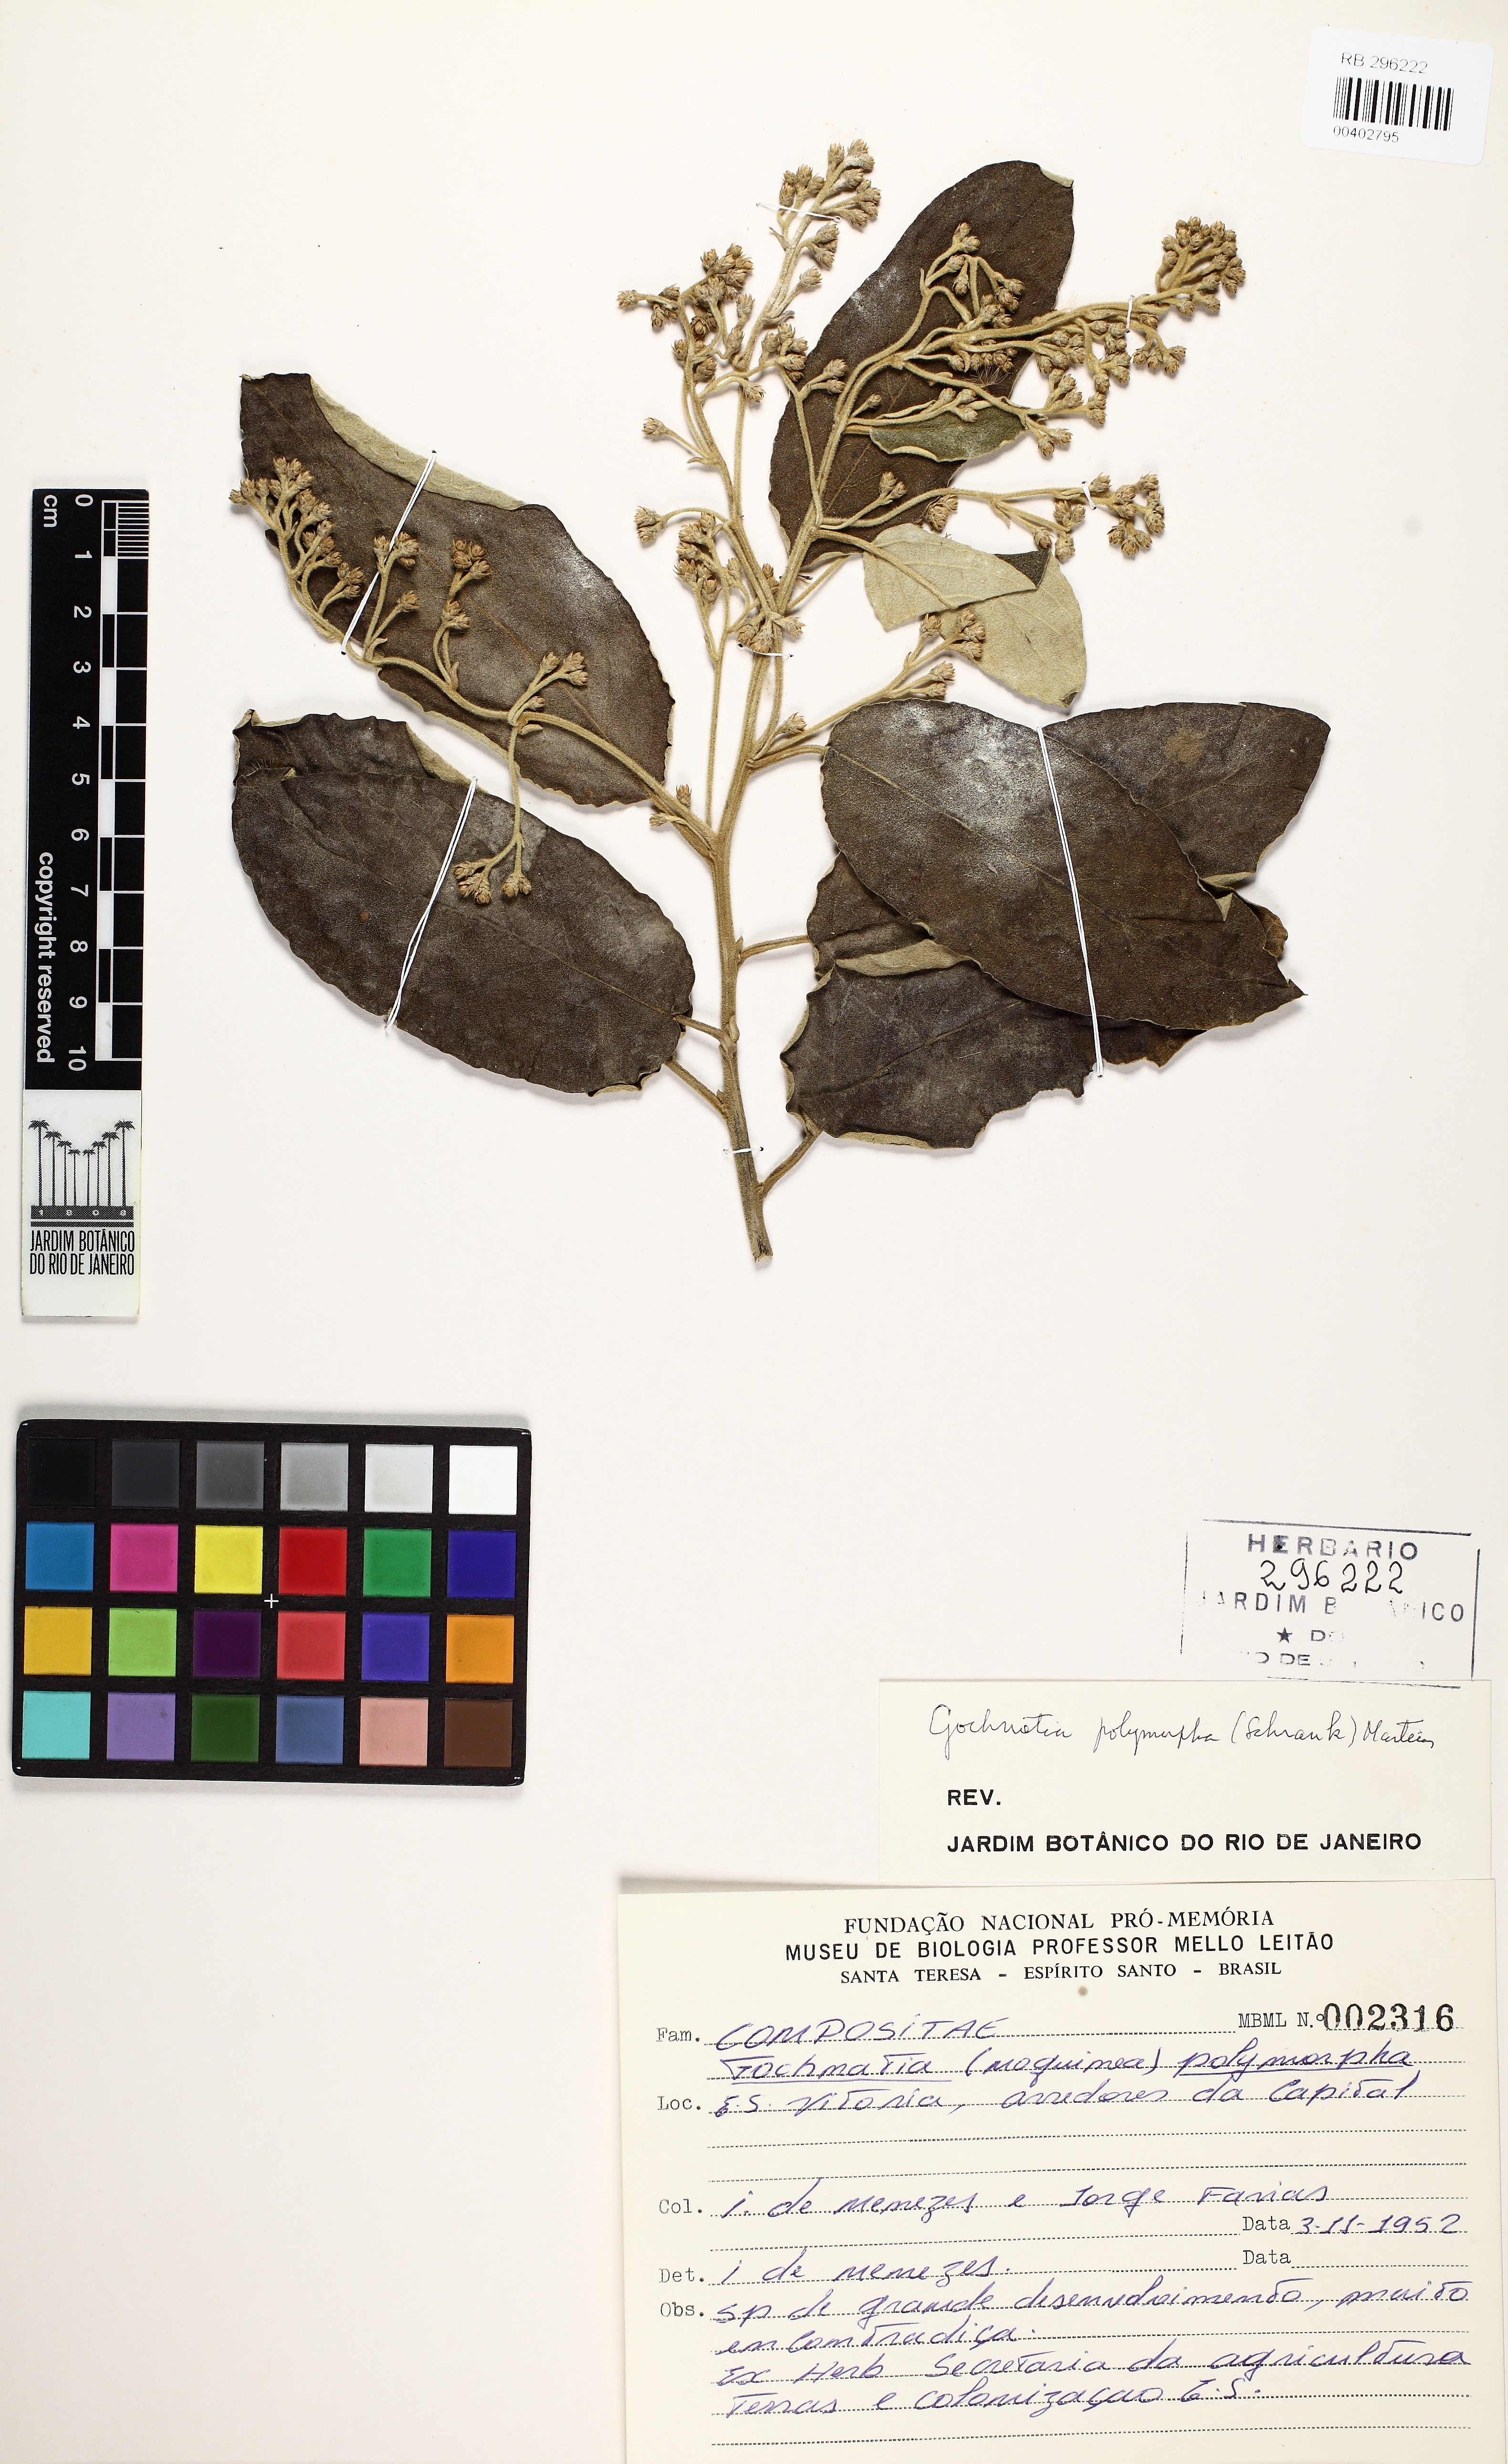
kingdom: Plantae
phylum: Tracheophyta
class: Magnoliopsida
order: Asterales
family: Asteraceae
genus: Moquiniastrum
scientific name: Moquiniastrum polymorphum
